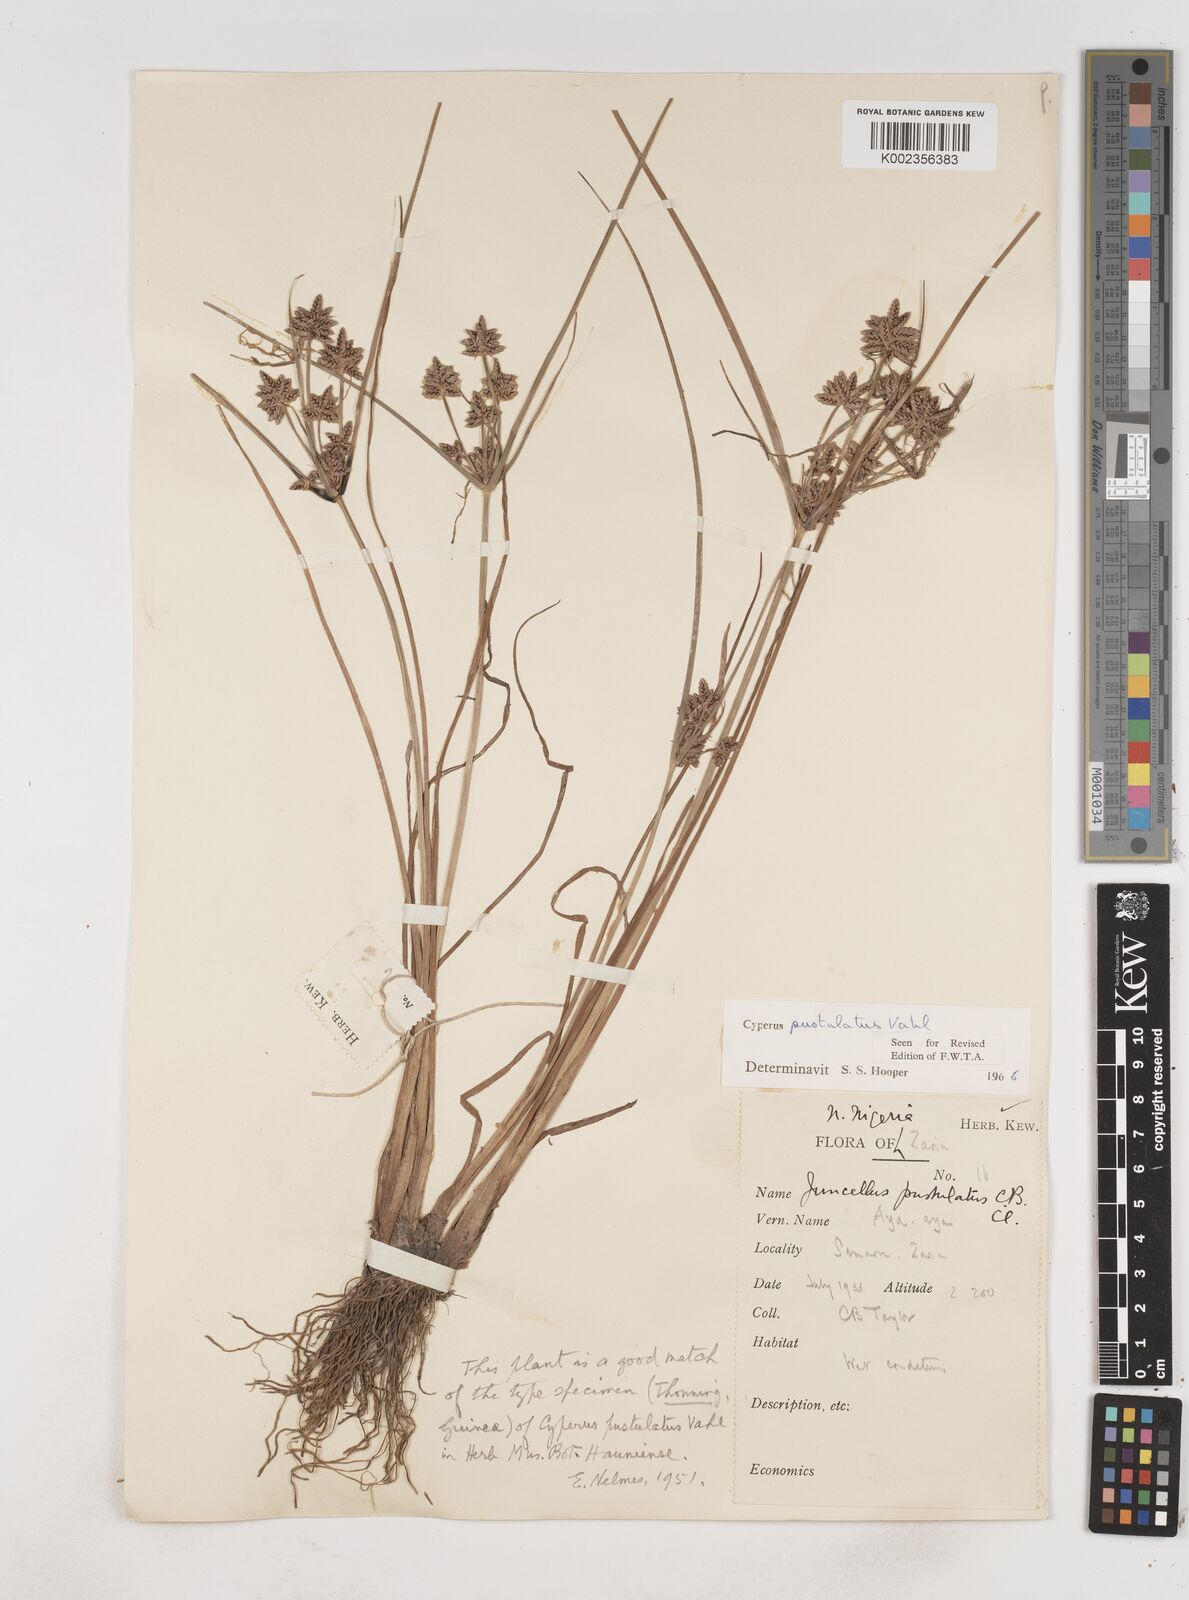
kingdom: Plantae
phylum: Tracheophyta
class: Liliopsida
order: Poales
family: Cyperaceae
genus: Cyperus
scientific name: Cyperus pustulatus
